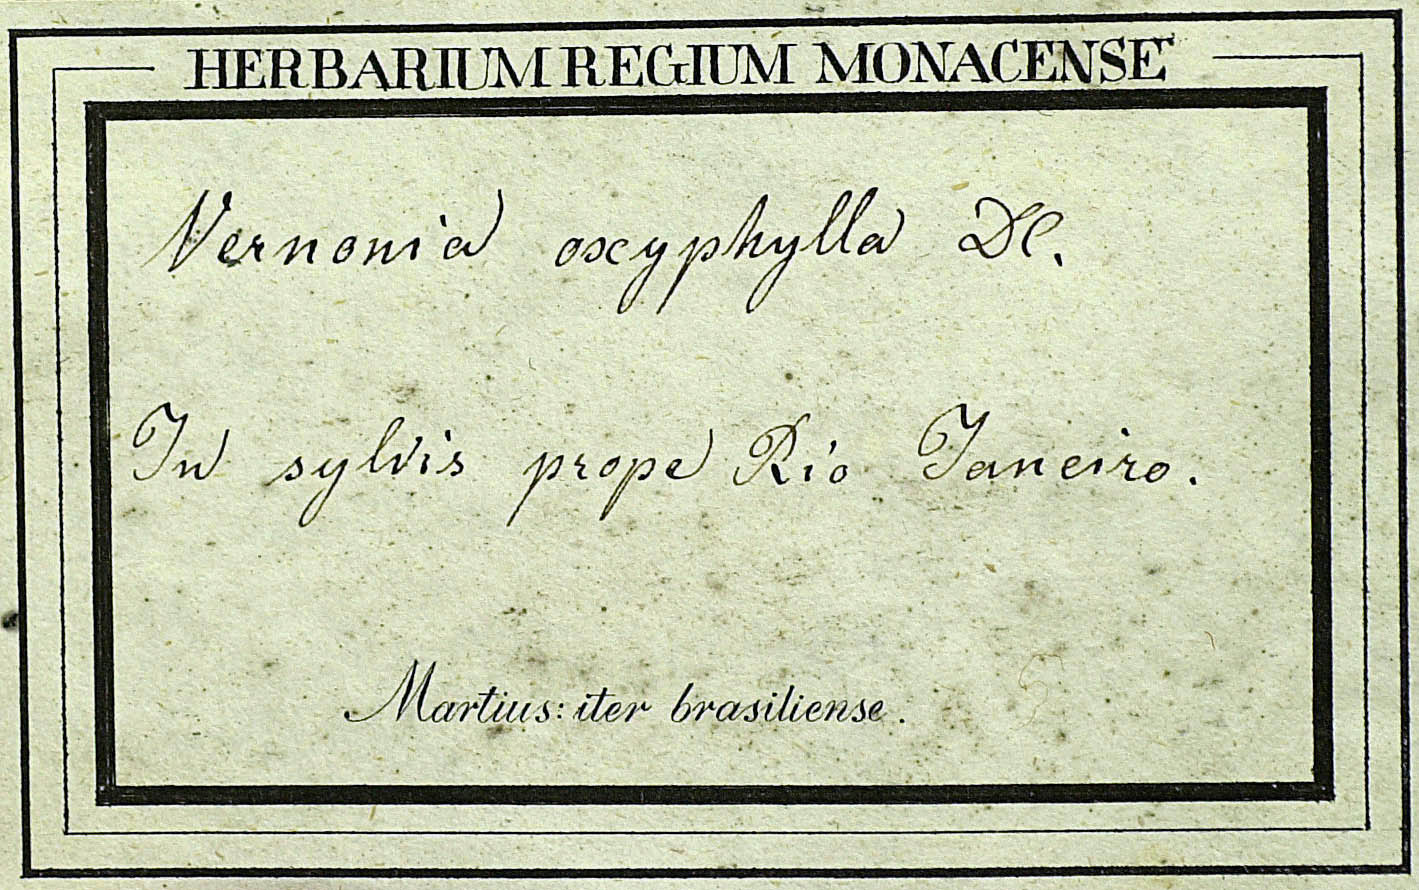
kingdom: Plantae
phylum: Tracheophyta
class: Magnoliopsida
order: Asterales
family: Asteraceae
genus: Piptocarpha
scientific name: Piptocarpha verticillata
